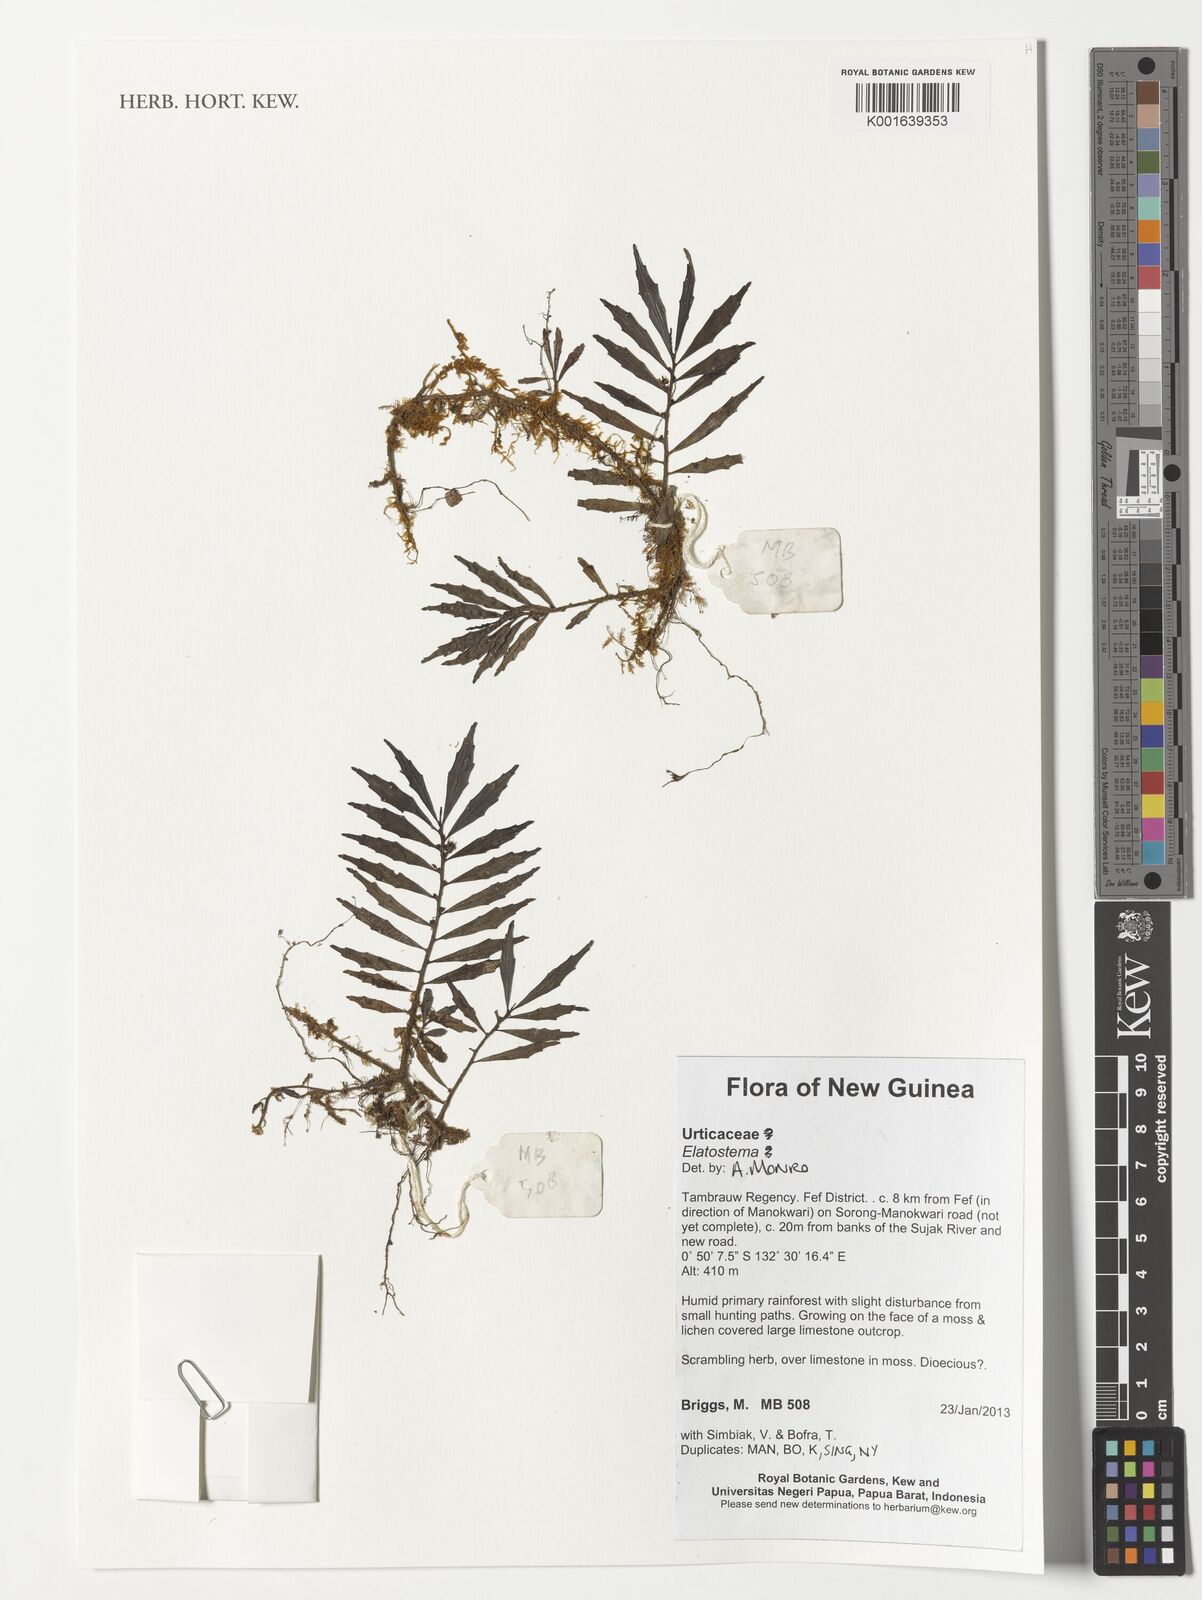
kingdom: Plantae
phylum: Tracheophyta
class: Magnoliopsida
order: Rosales
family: Urticaceae
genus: Elatostema
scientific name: Elatostema
